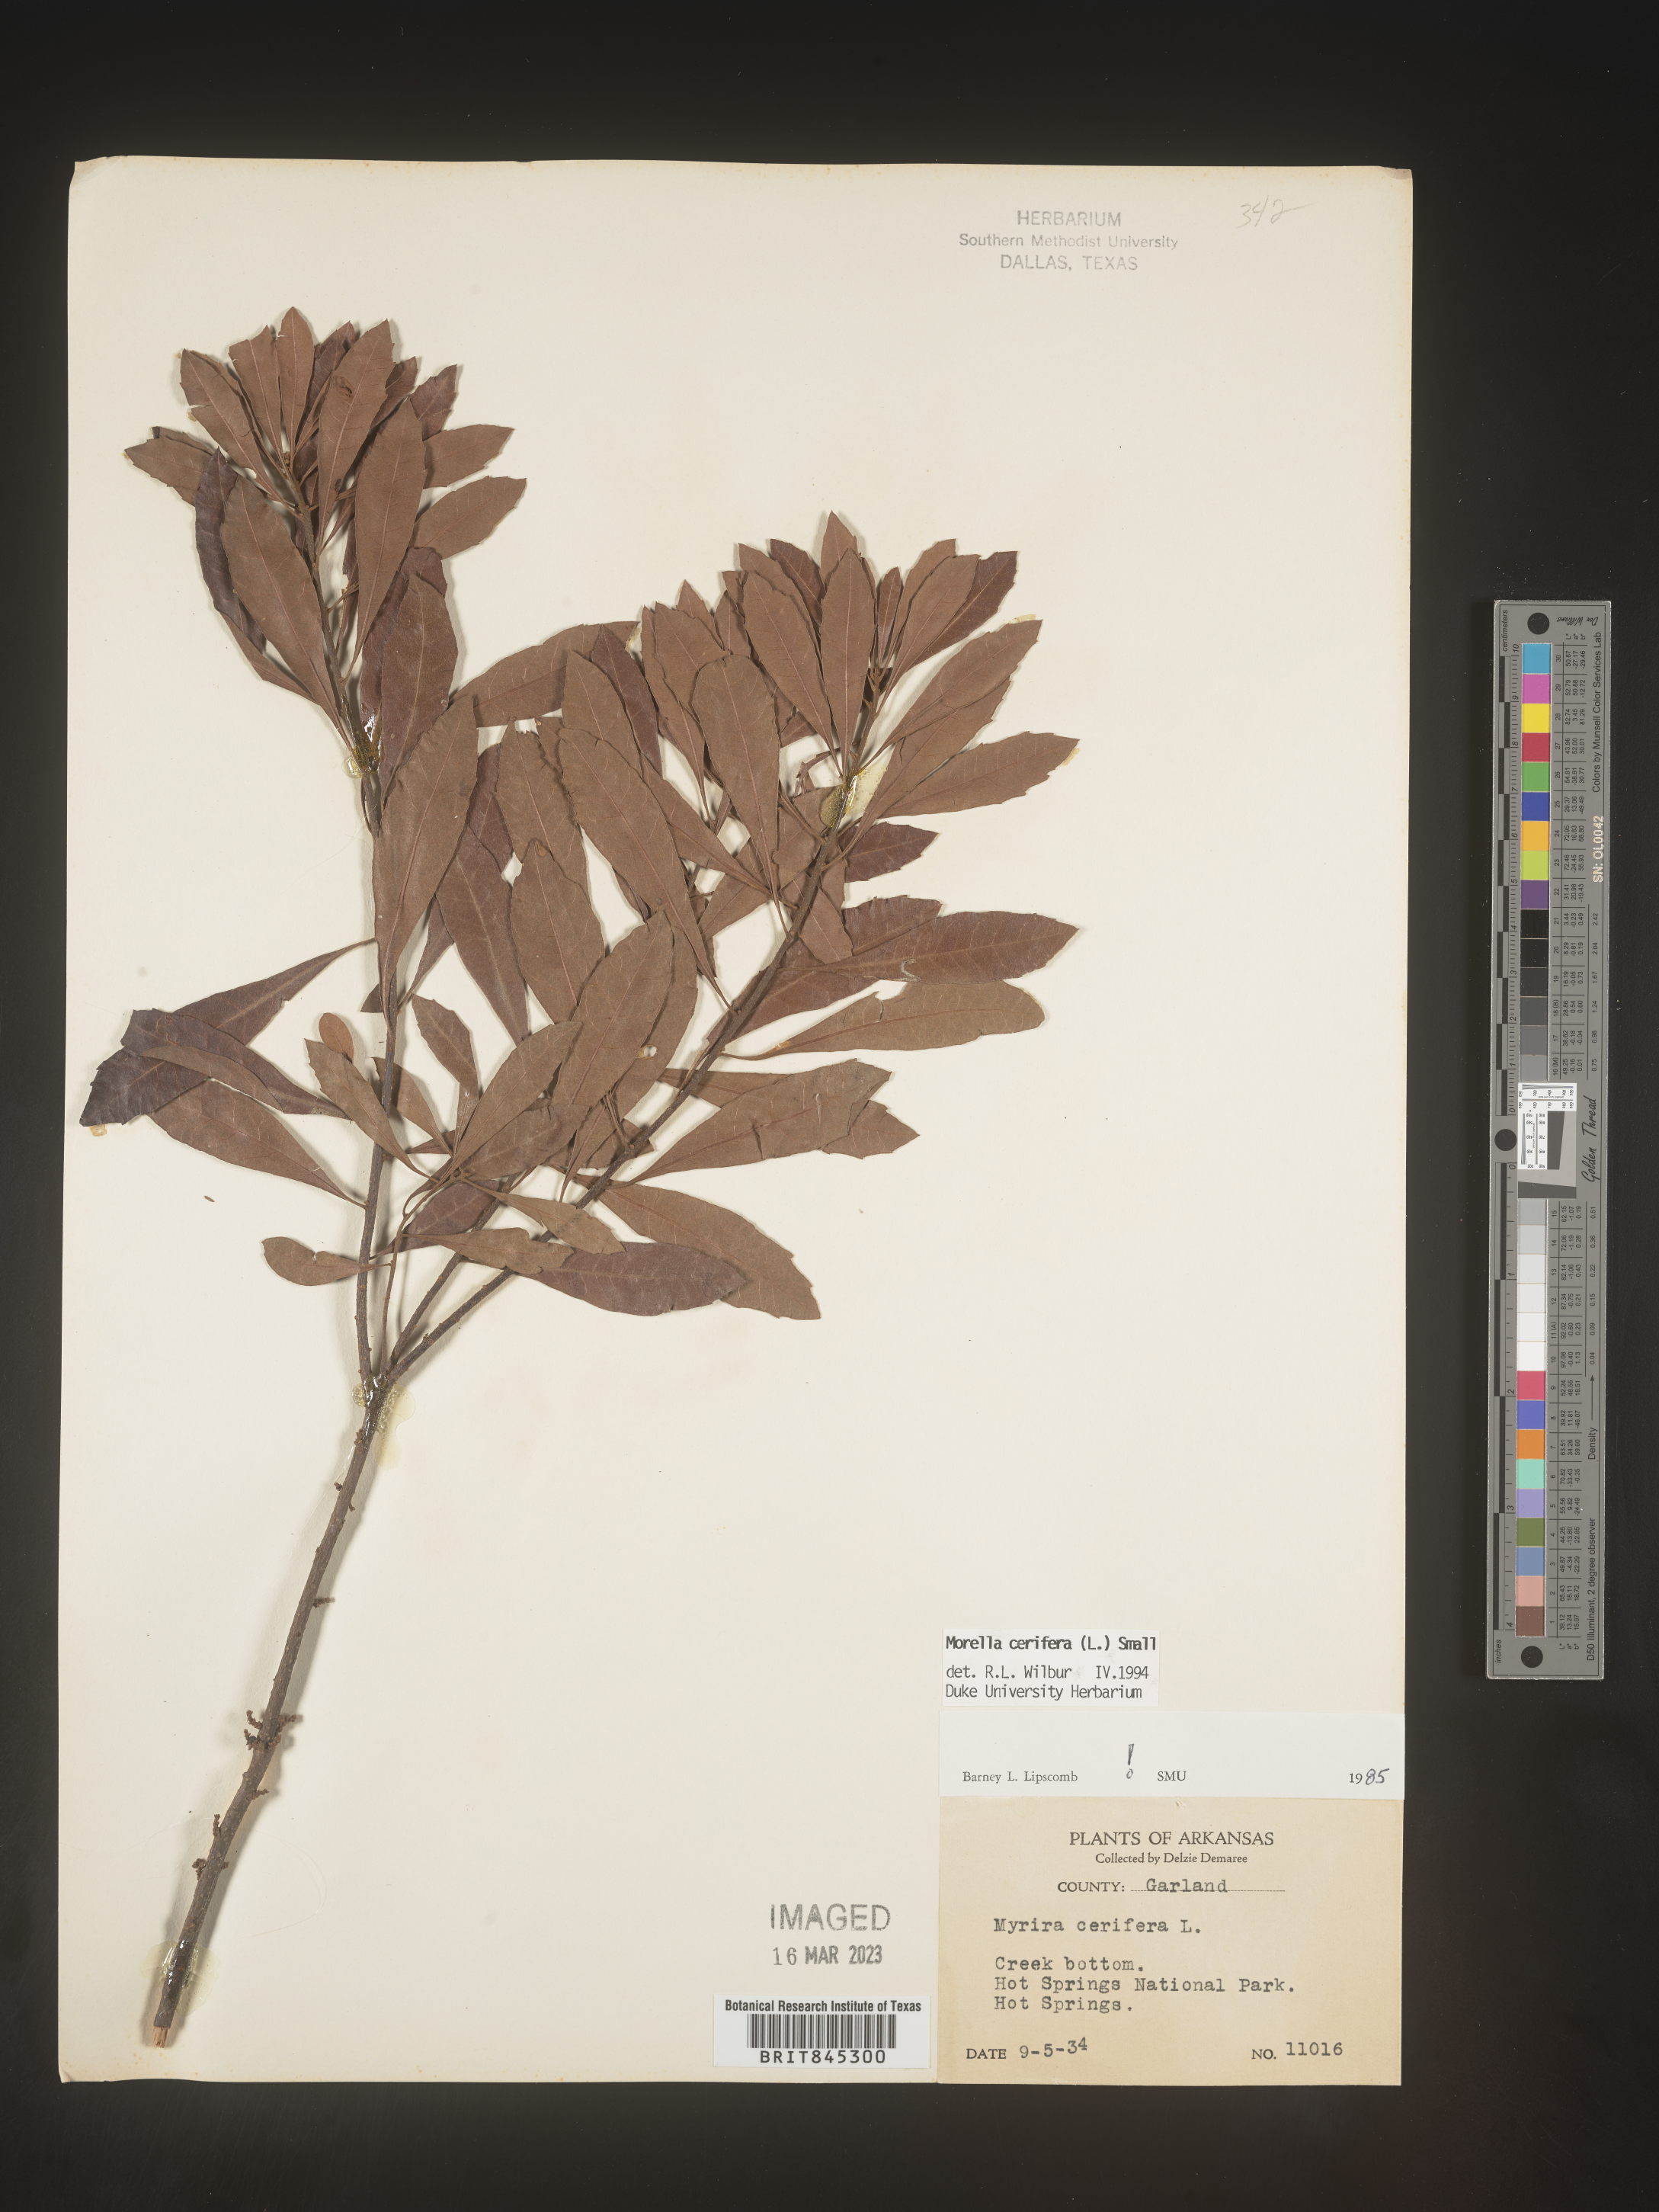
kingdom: Plantae
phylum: Tracheophyta
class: Magnoliopsida
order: Fagales
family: Myricaceae
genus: Morella
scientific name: Morella cerifera
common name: Wax myrtle
